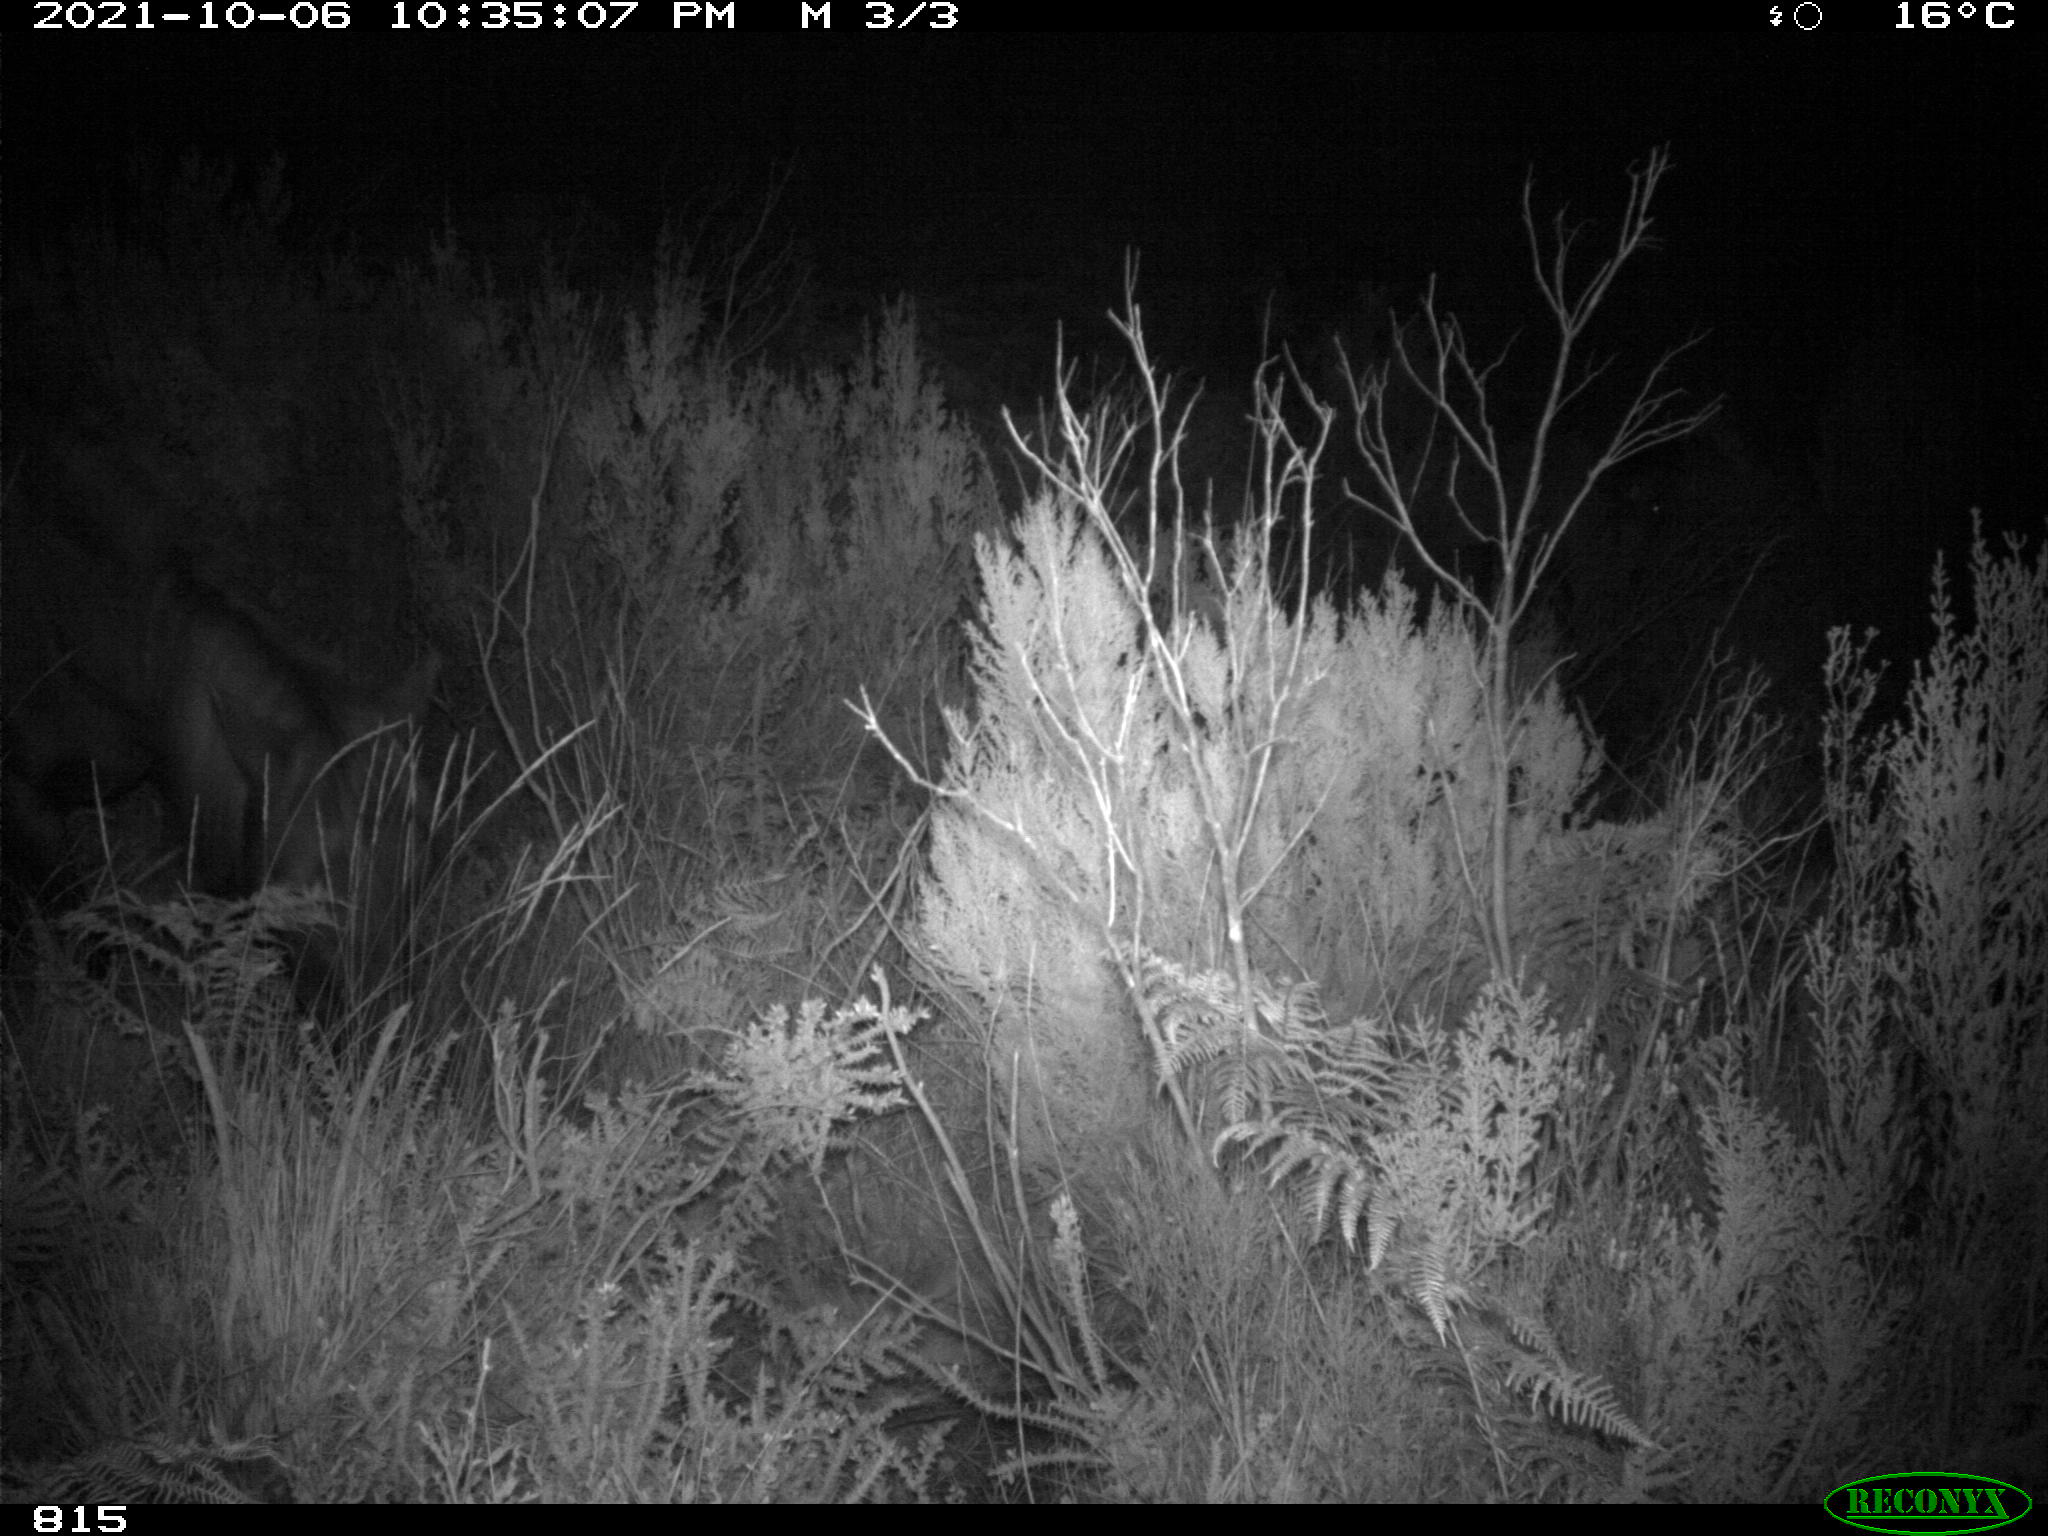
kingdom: Animalia
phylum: Chordata
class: Mammalia
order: Perissodactyla
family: Equidae
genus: Equus
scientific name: Equus caballus
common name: Horse
